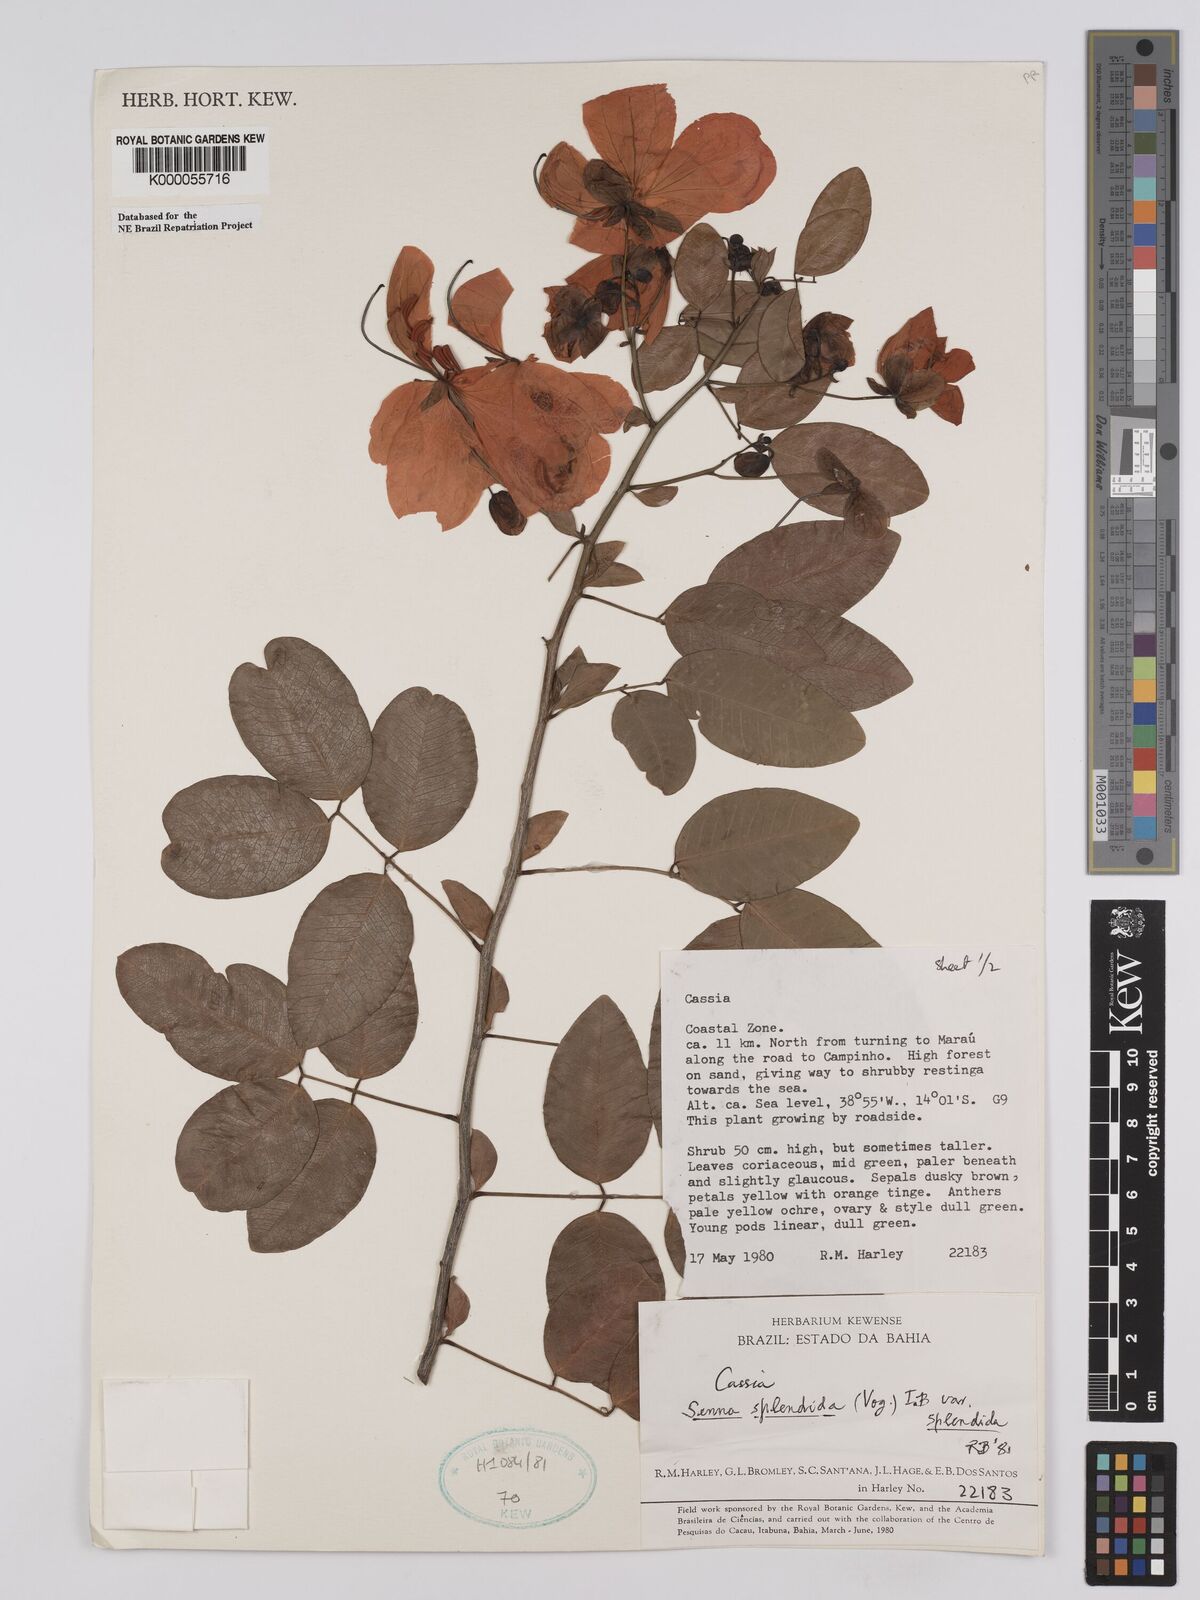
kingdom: Plantae
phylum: Tracheophyta
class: Magnoliopsida
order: Fabales
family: Fabaceae
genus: Senna
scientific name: Senna splendida
